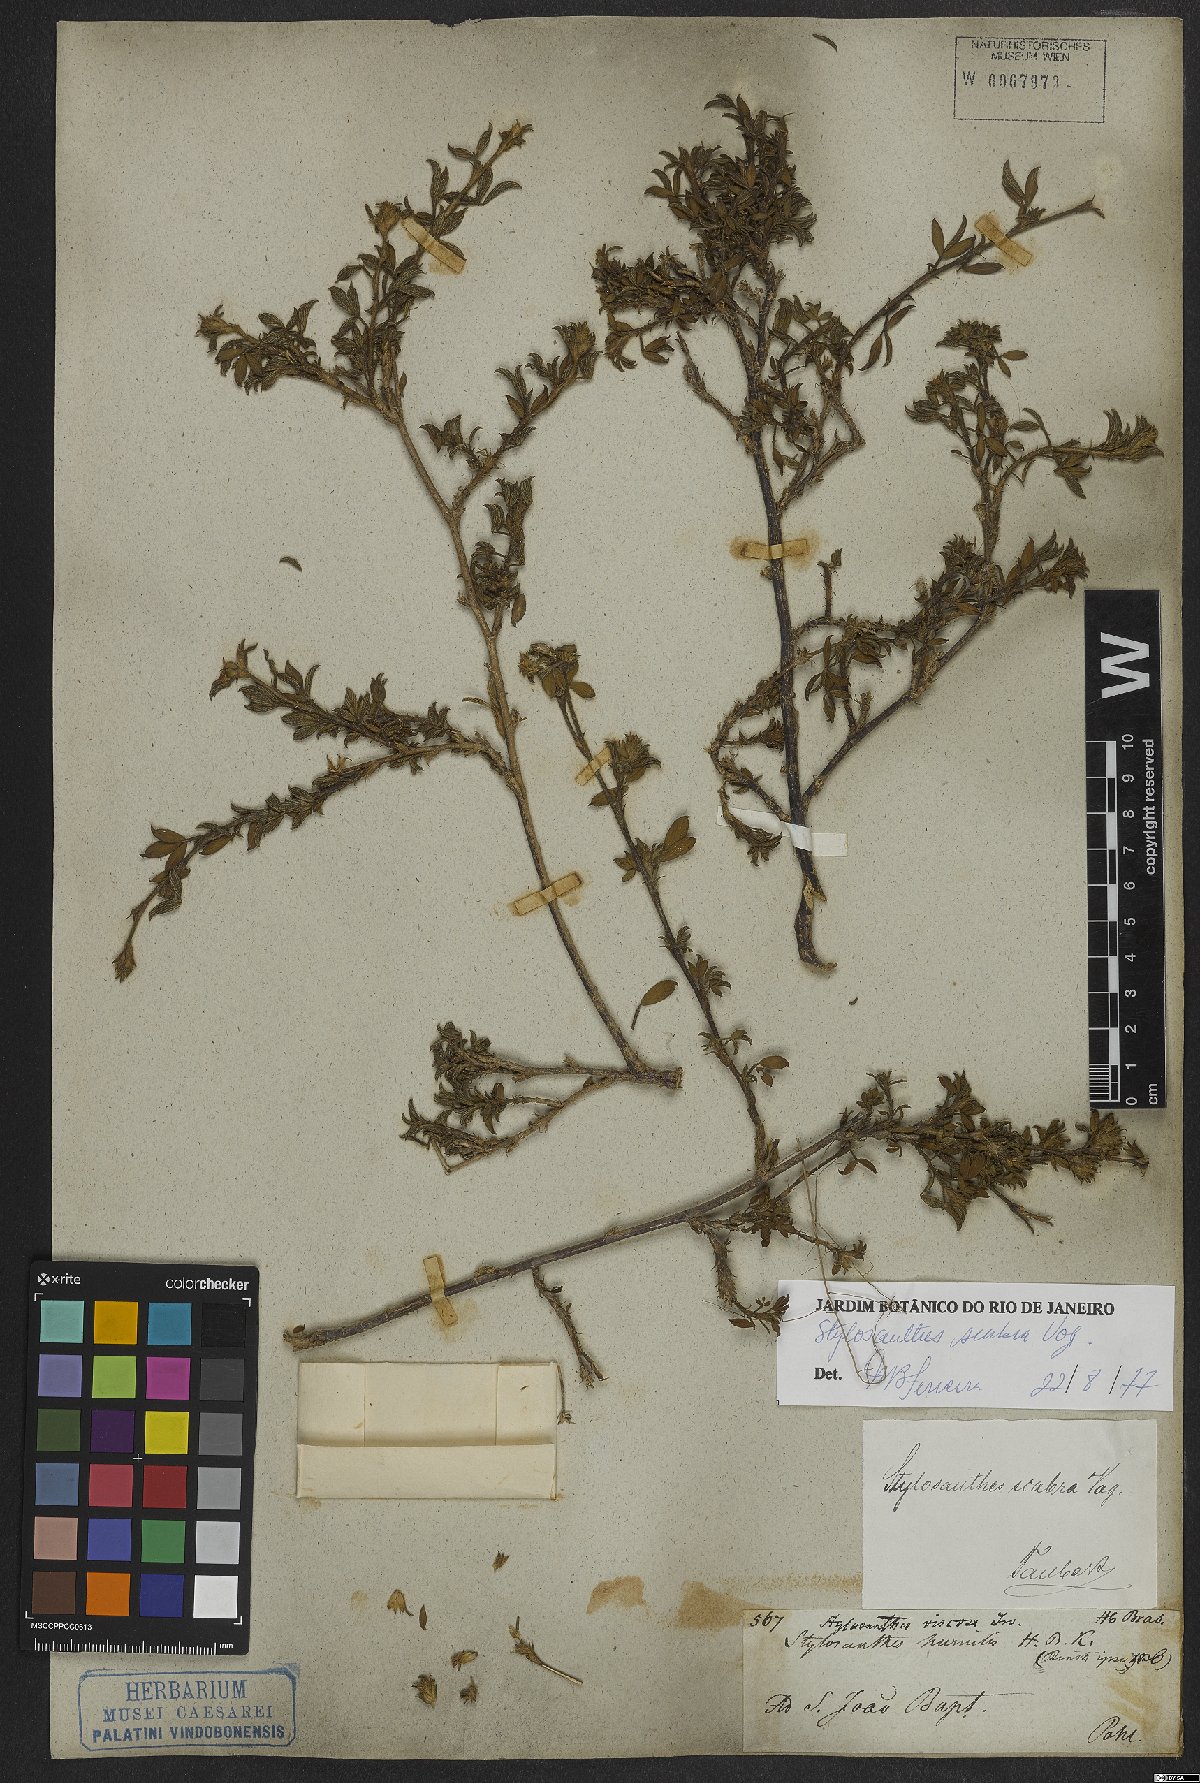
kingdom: Plantae
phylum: Tracheophyta
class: Magnoliopsida
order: Fabales
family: Fabaceae
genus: Stylosanthes
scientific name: Stylosanthes scabra
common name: Pencilflower
